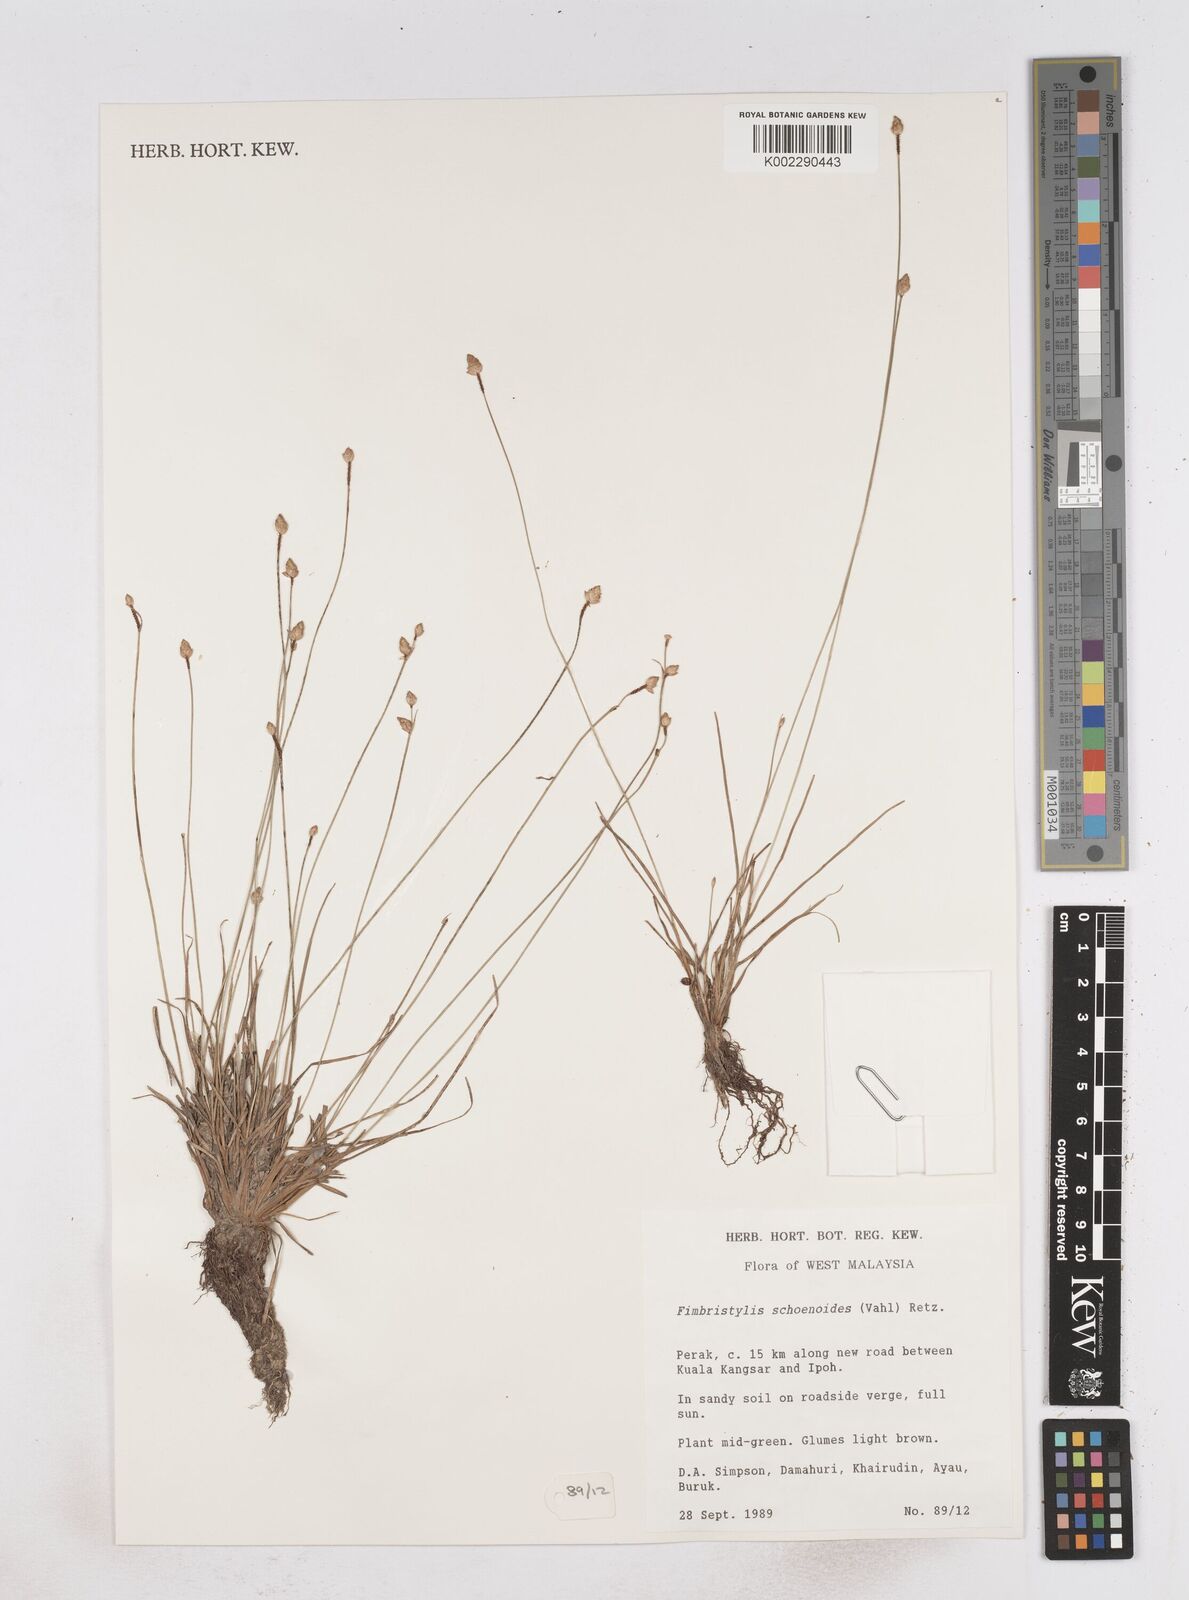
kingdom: Plantae
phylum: Tracheophyta
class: Liliopsida
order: Poales
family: Cyperaceae
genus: Fimbristylis
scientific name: Fimbristylis schoenoides
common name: Ditch fimbry
